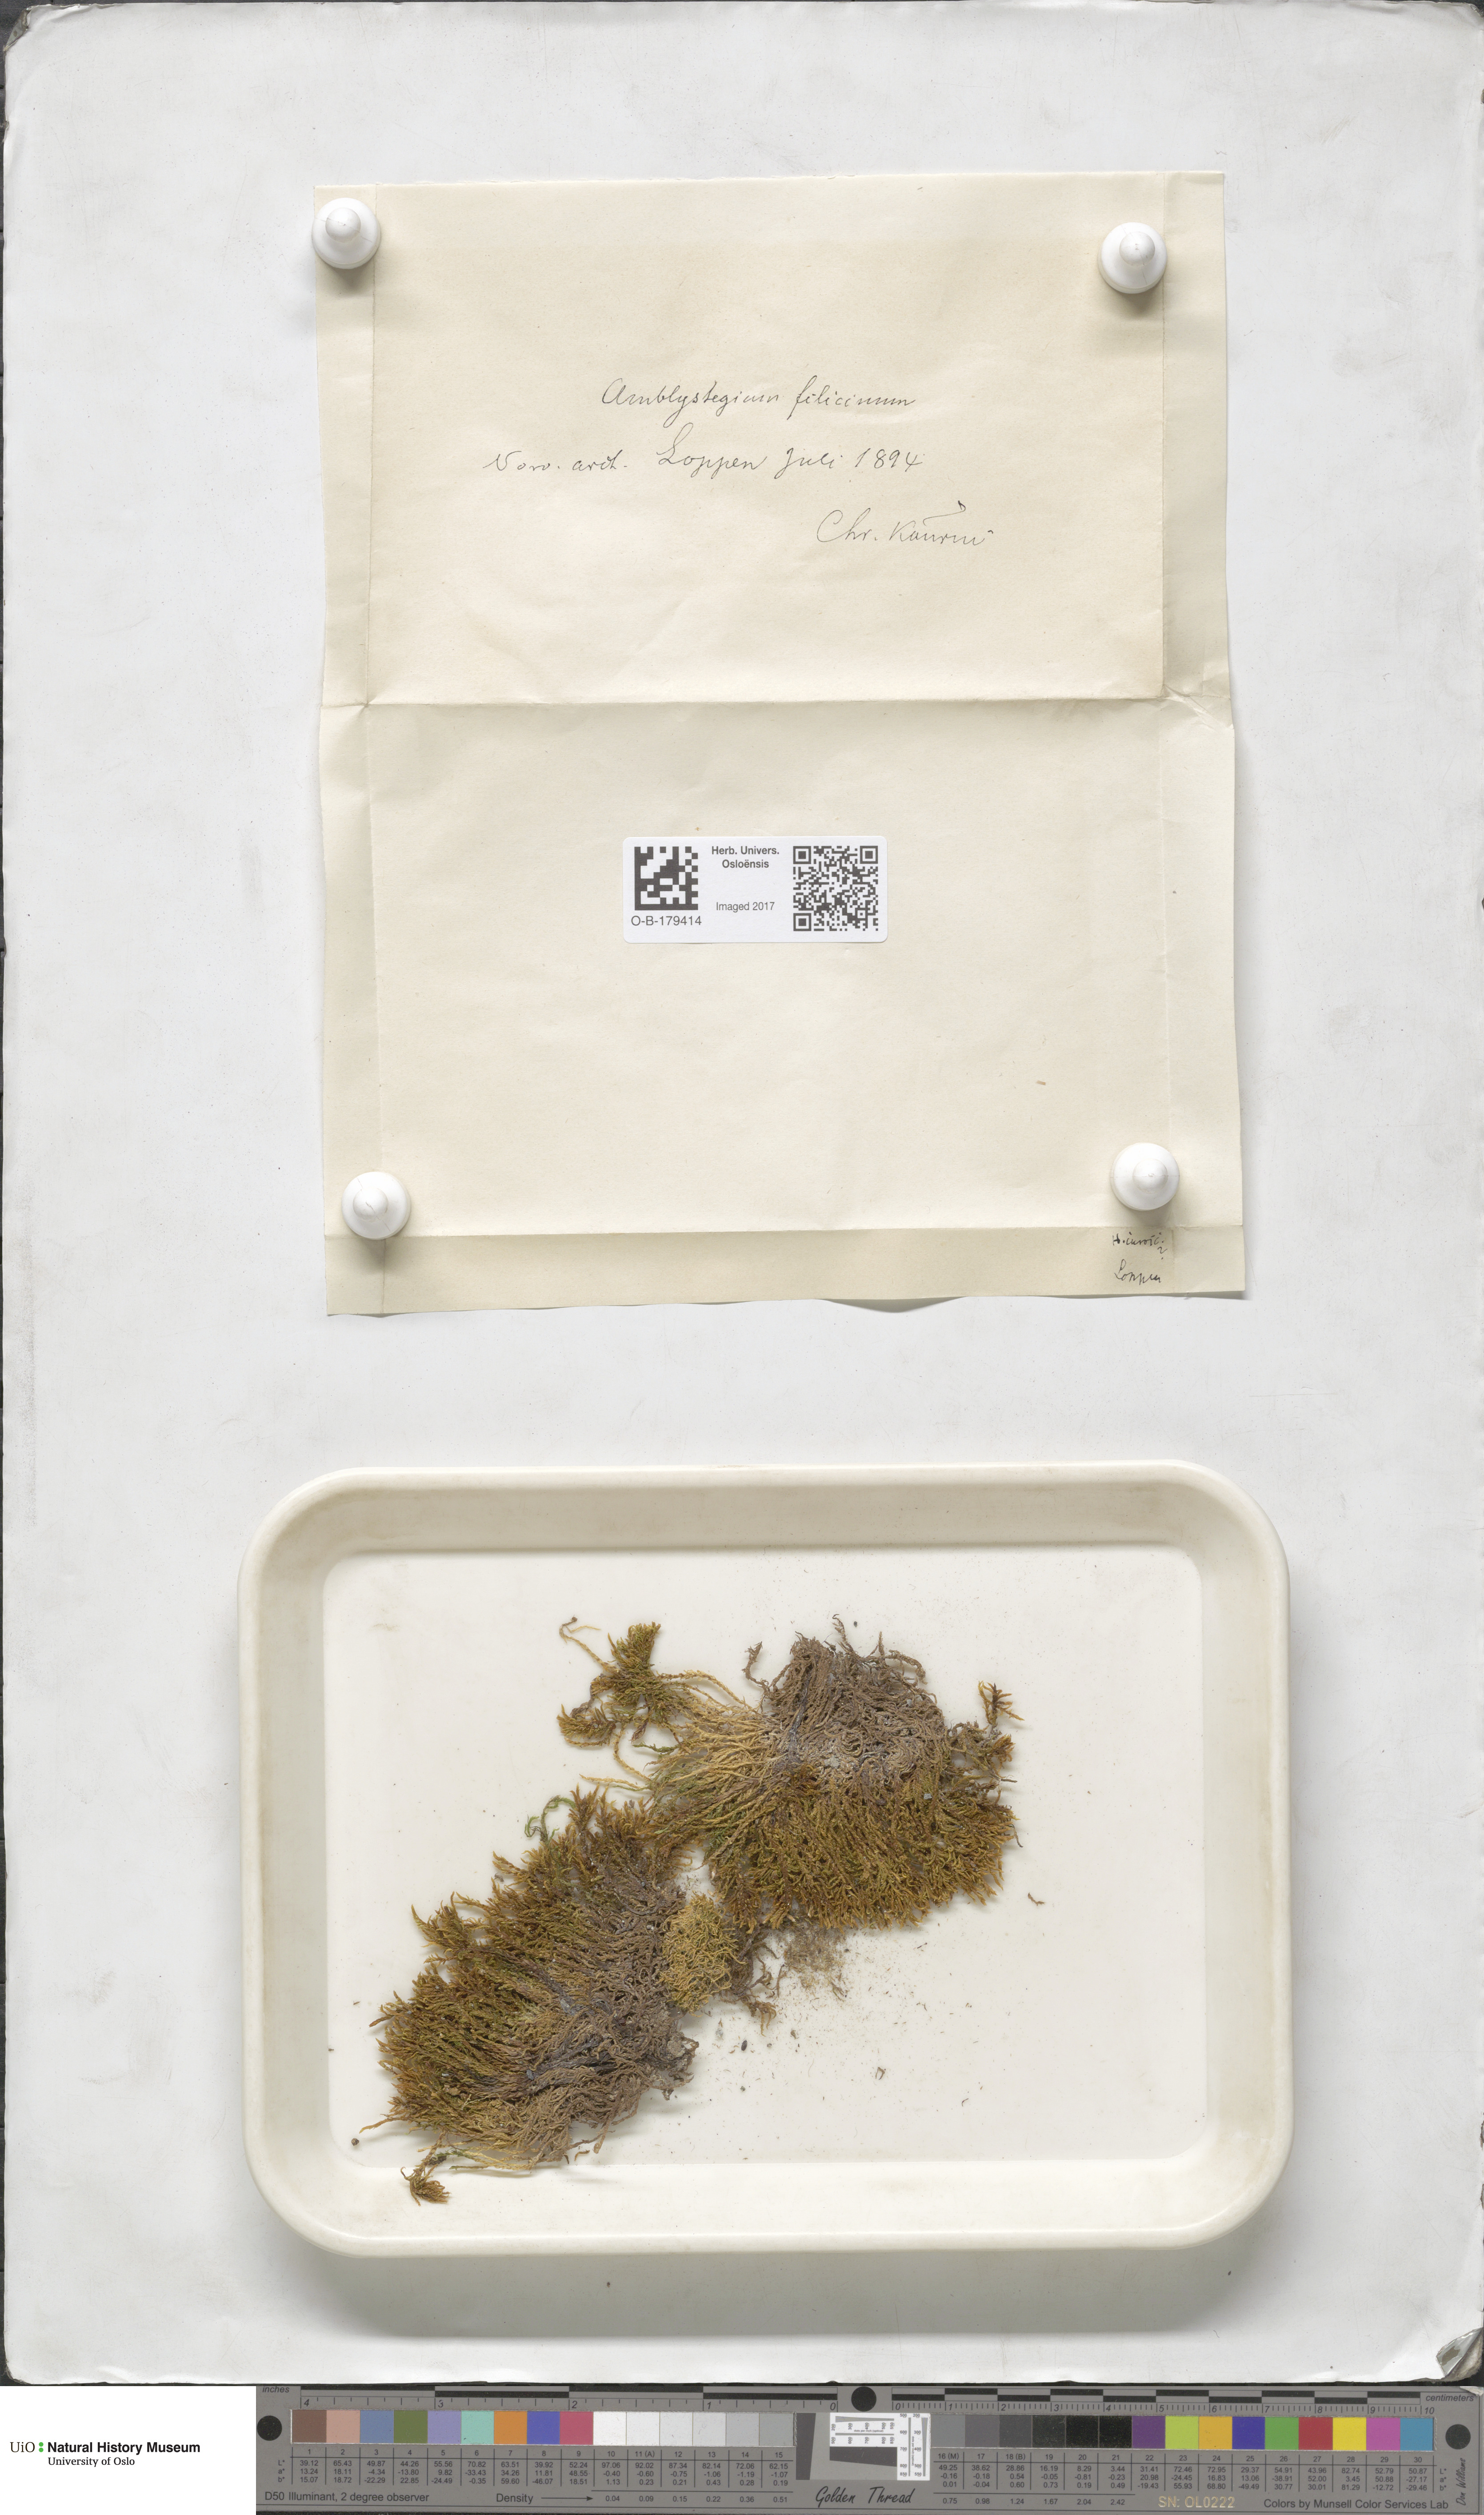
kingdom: Plantae
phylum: Bryophyta
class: Bryopsida
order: Hypnales
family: Amblystegiaceae
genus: Cratoneuron
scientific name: Cratoneuron filicinum
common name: Fern-leaved hook moss
